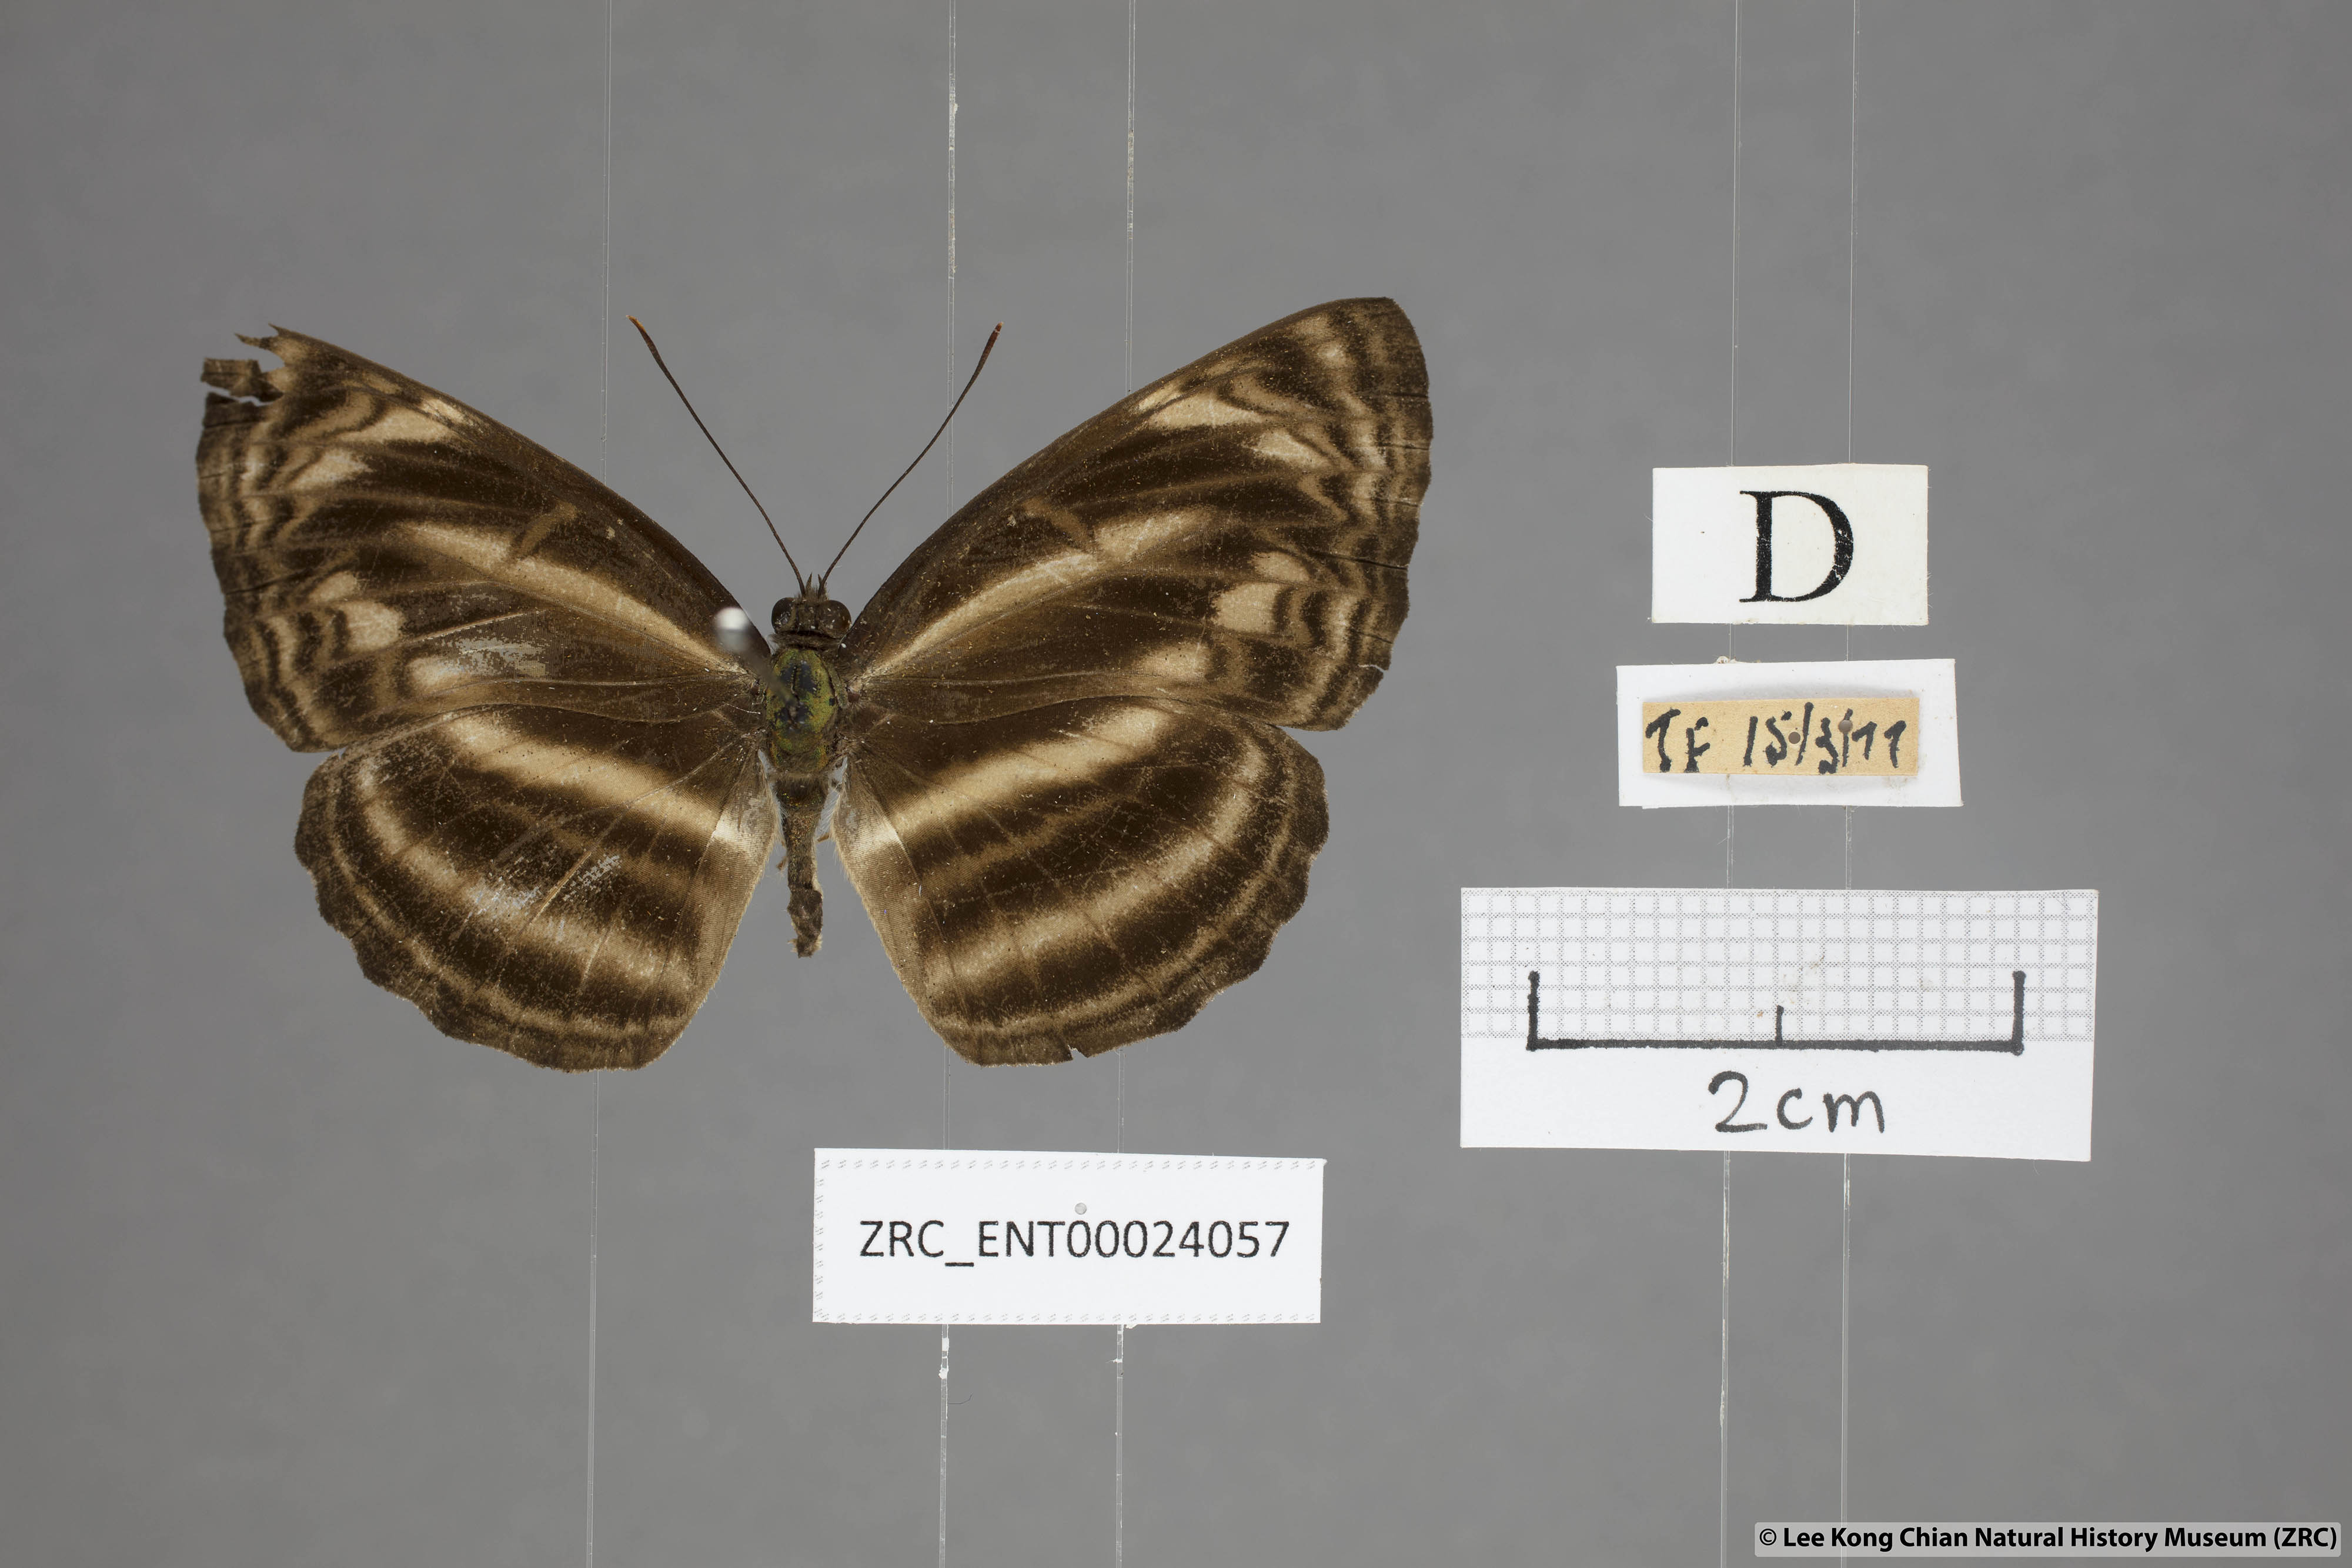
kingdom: Animalia
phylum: Arthropoda
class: Insecta
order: Lepidoptera
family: Nymphalidae
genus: Neptis
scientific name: Neptis omeroda
